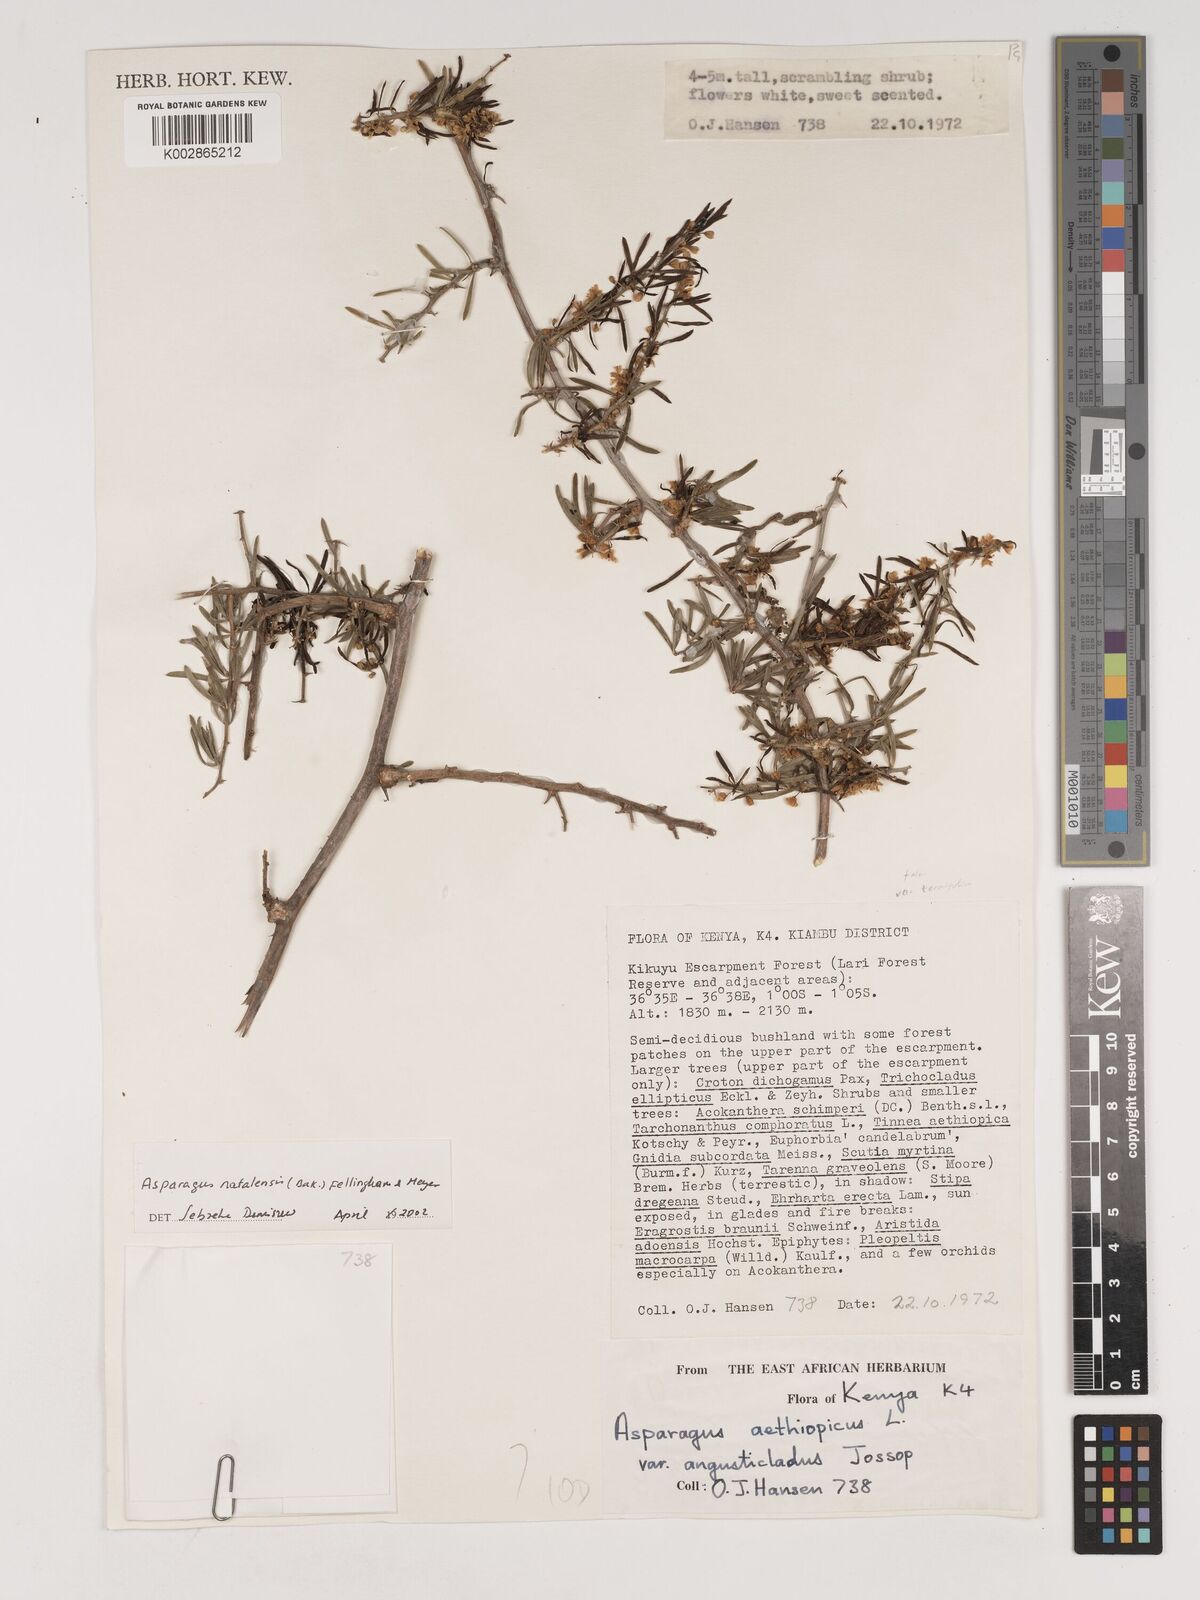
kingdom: Plantae
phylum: Tracheophyta
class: Liliopsida
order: Asparagales
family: Asparagaceae
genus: Asparagus
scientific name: Asparagus natalensis
